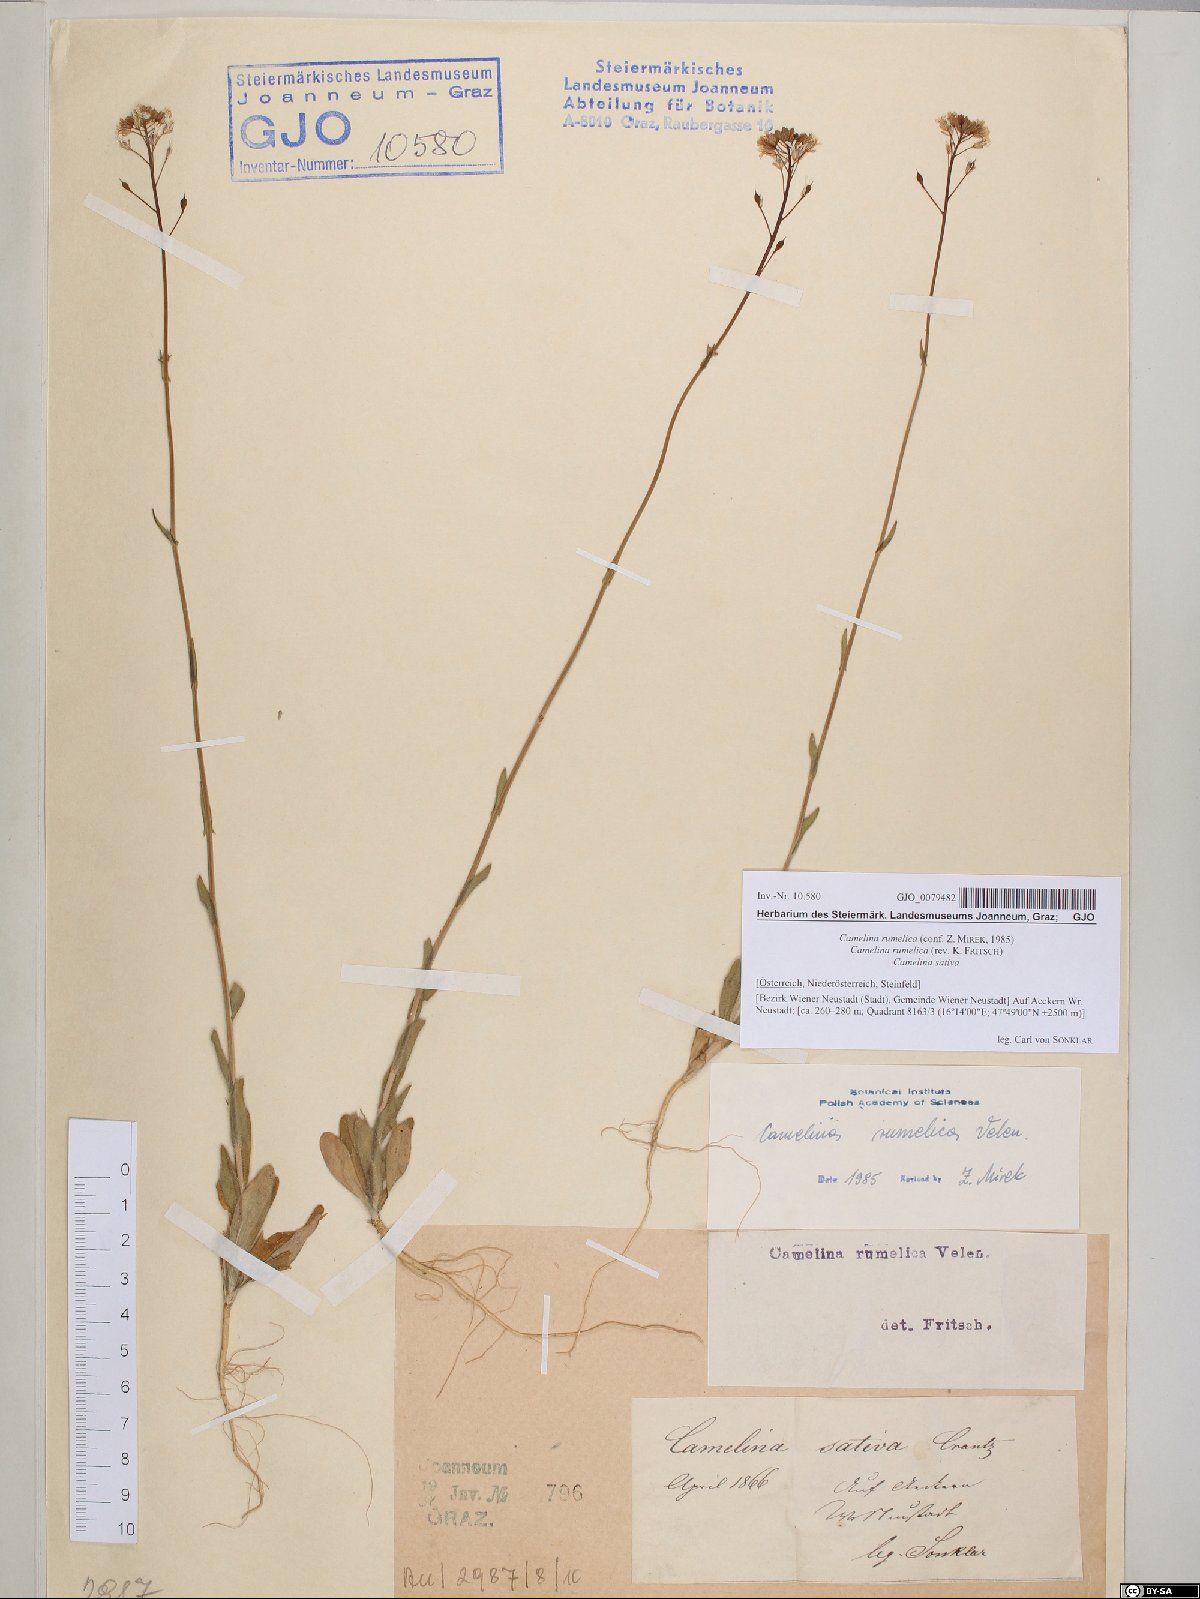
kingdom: Plantae
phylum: Tracheophyta
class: Magnoliopsida
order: Brassicales
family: Brassicaceae
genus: Camelina
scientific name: Camelina rumelica
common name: Graceful false flax
